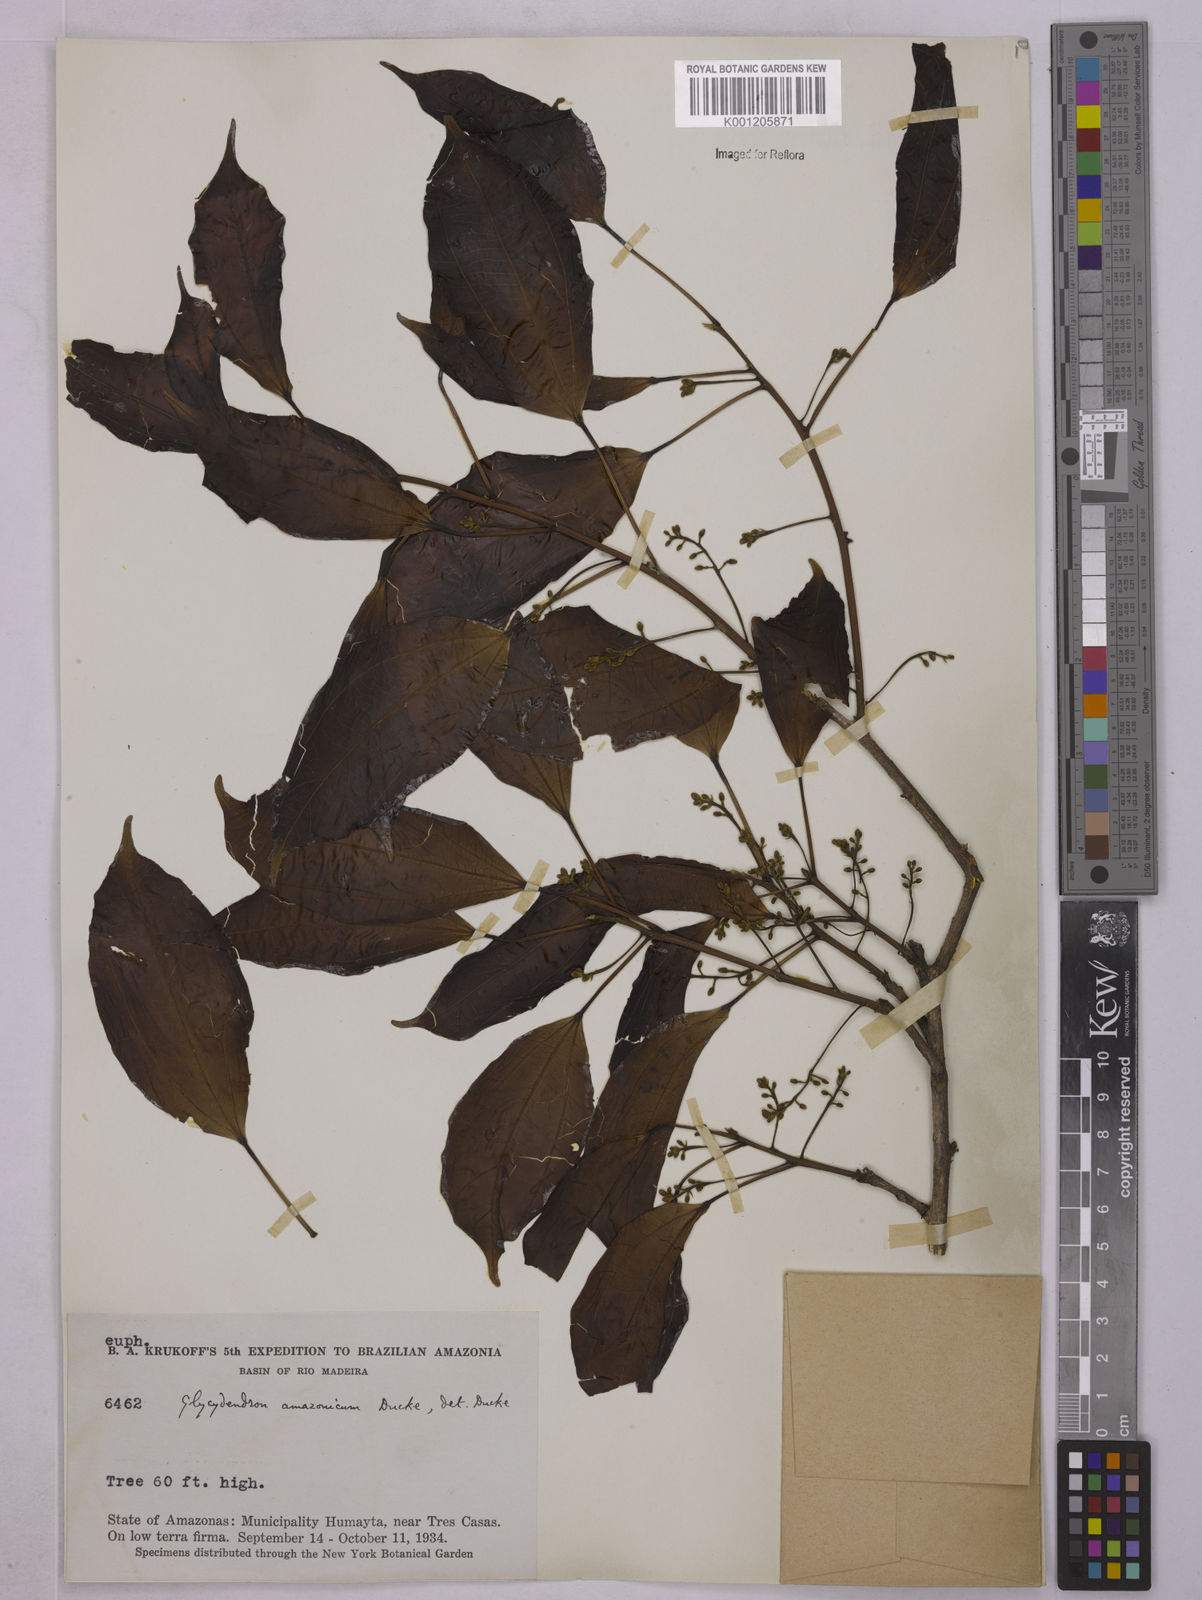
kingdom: Plantae
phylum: Tracheophyta
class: Magnoliopsida
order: Malpighiales
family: Euphorbiaceae
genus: Glycydendron
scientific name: Glycydendron amazonicum
